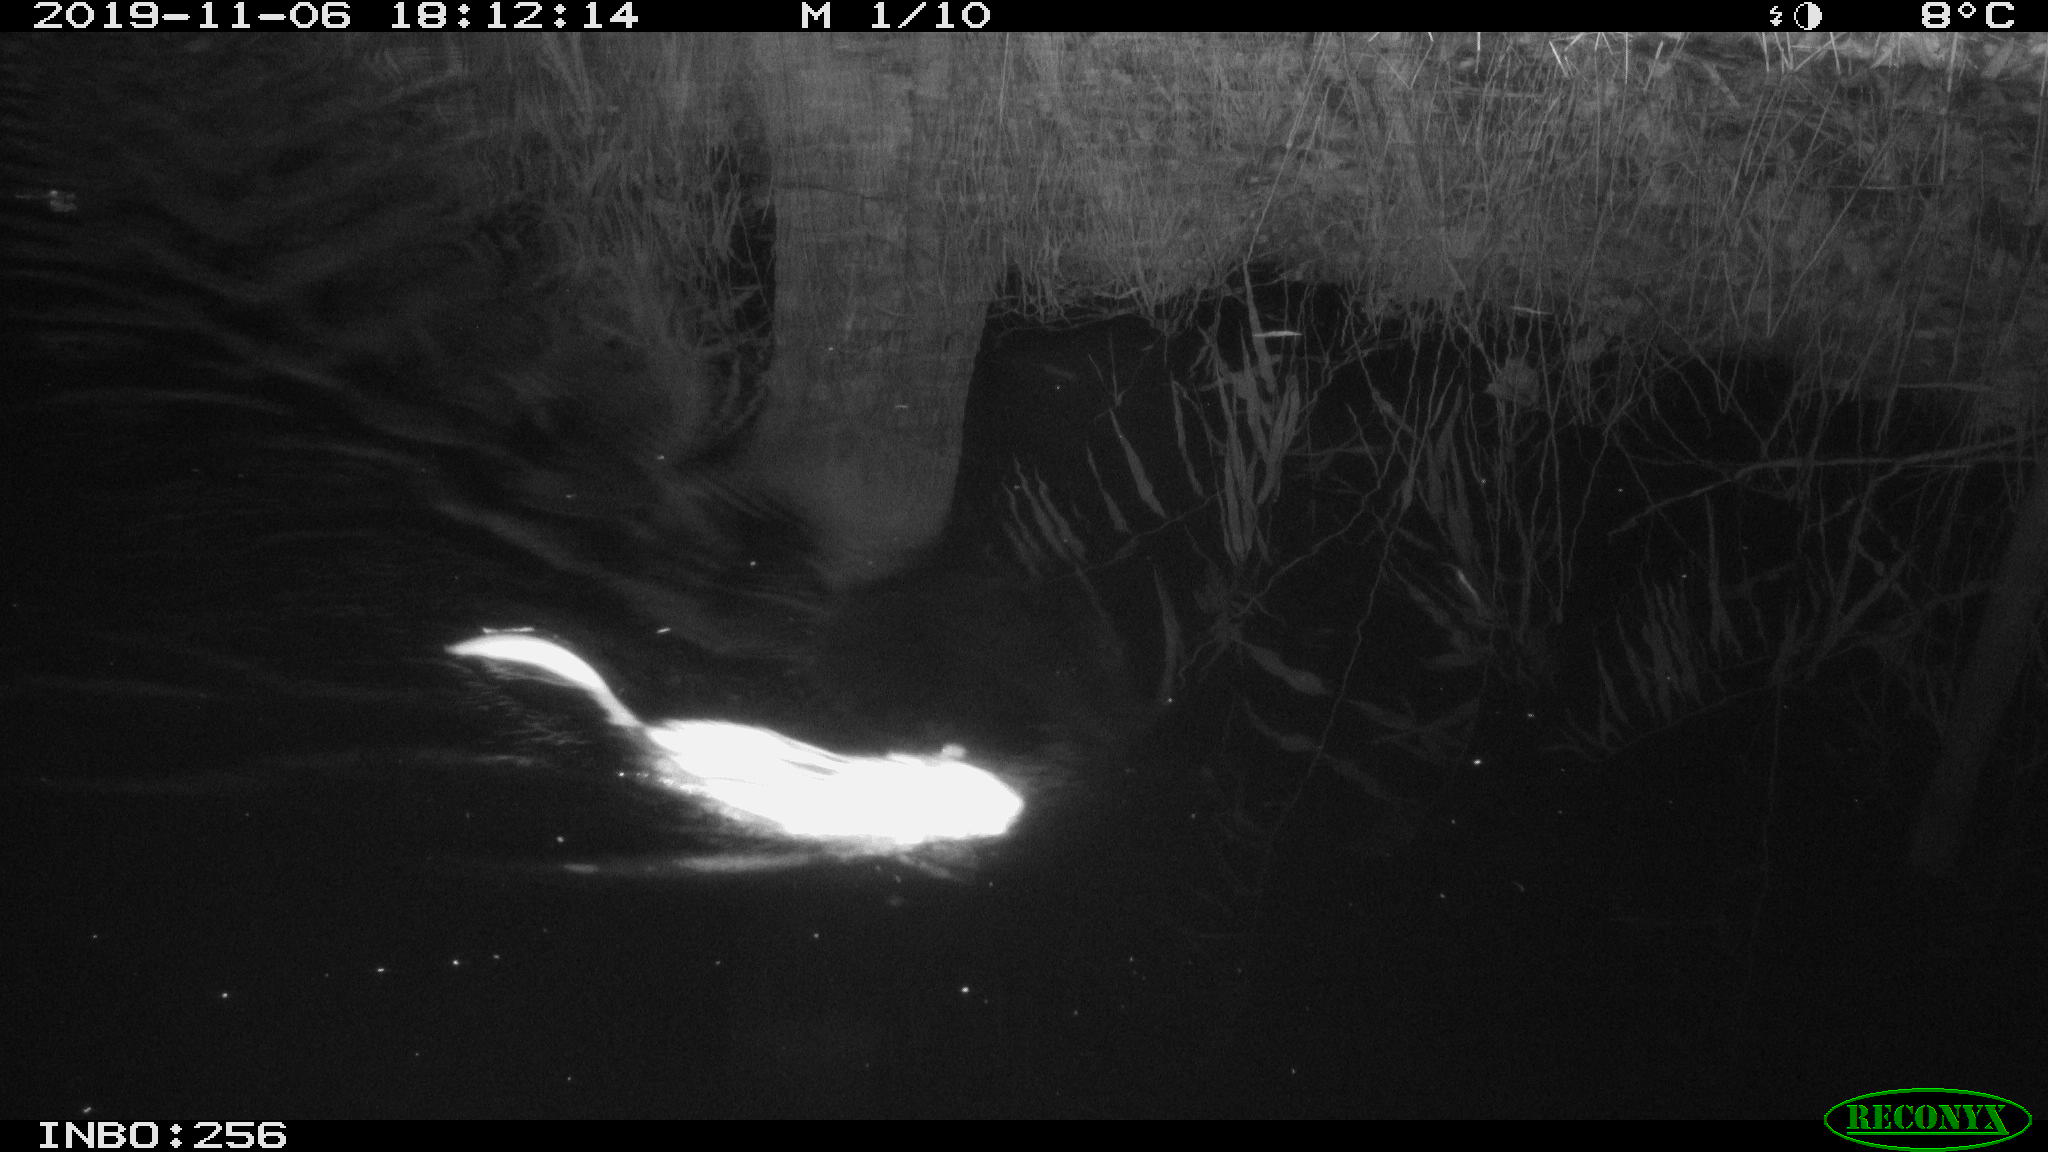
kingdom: Animalia
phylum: Chordata
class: Mammalia
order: Rodentia
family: Cricetidae
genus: Ondatra
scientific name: Ondatra zibethicus
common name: Muskrat
